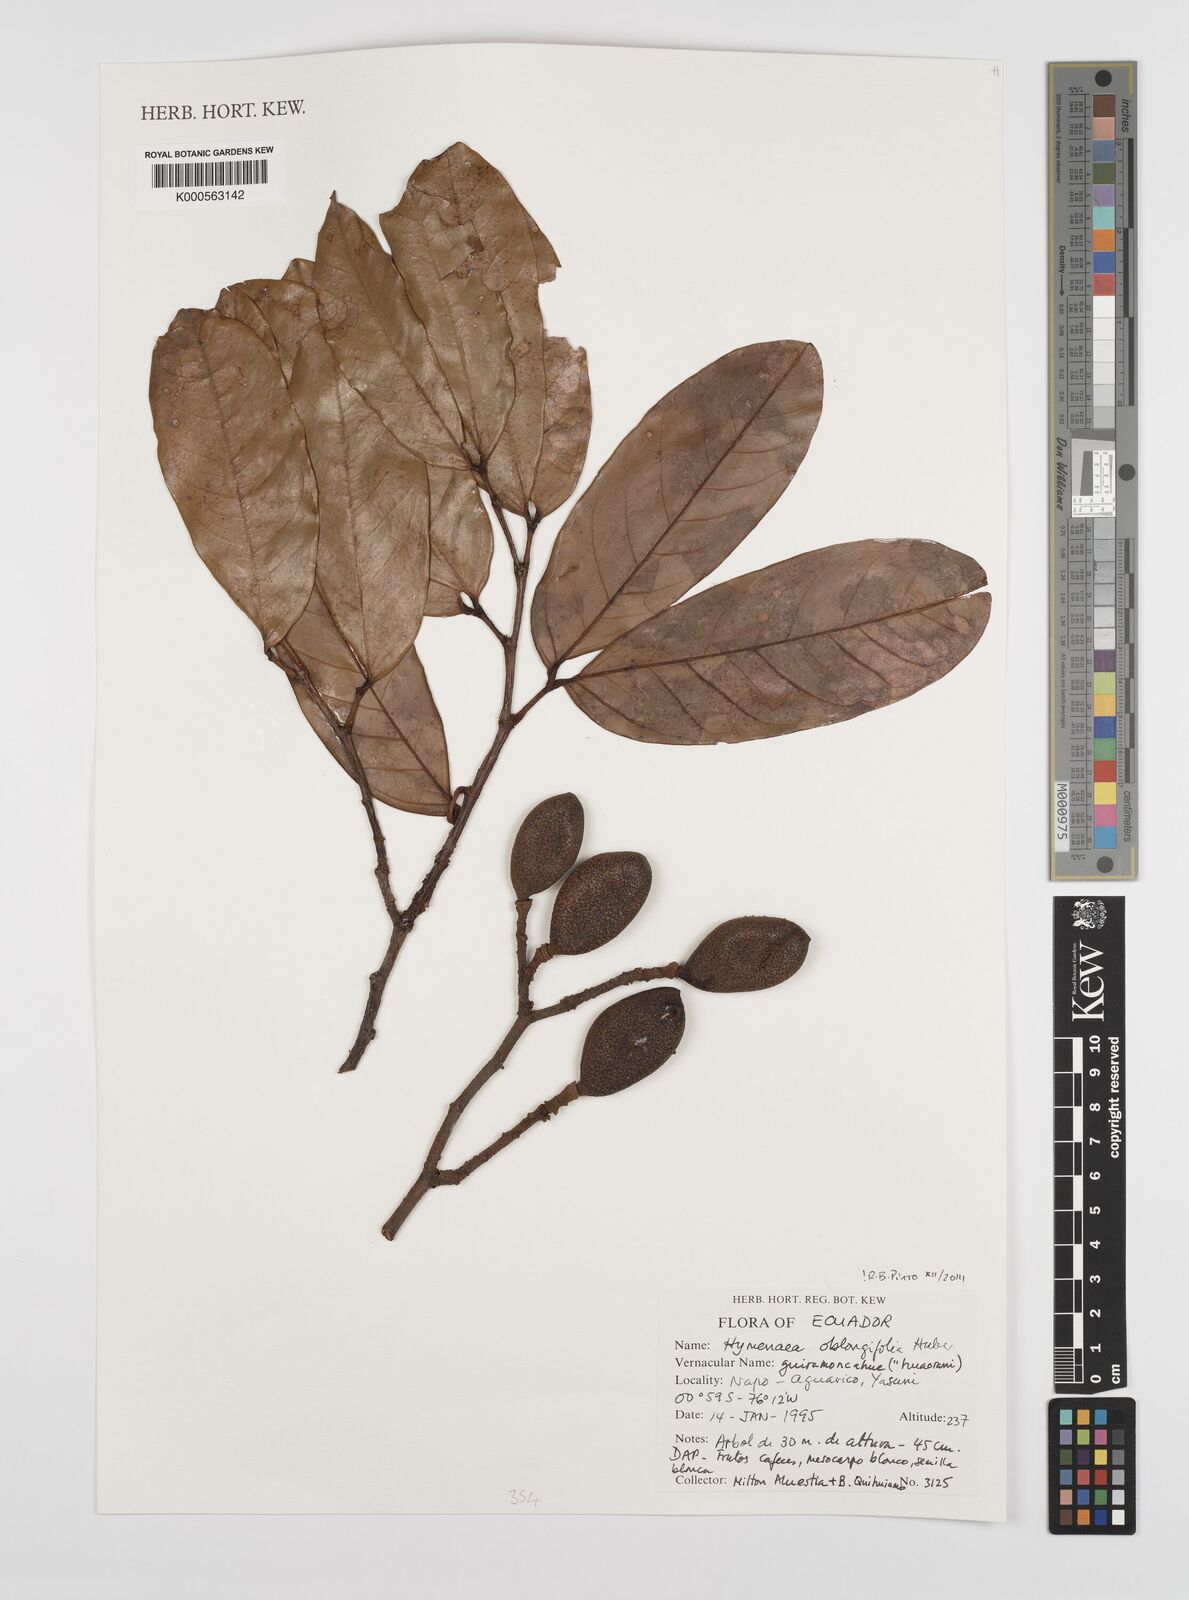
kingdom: Plantae
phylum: Tracheophyta
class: Magnoliopsida
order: Fabales
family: Fabaceae
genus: Hymenaea
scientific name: Hymenaea oblongifolia
